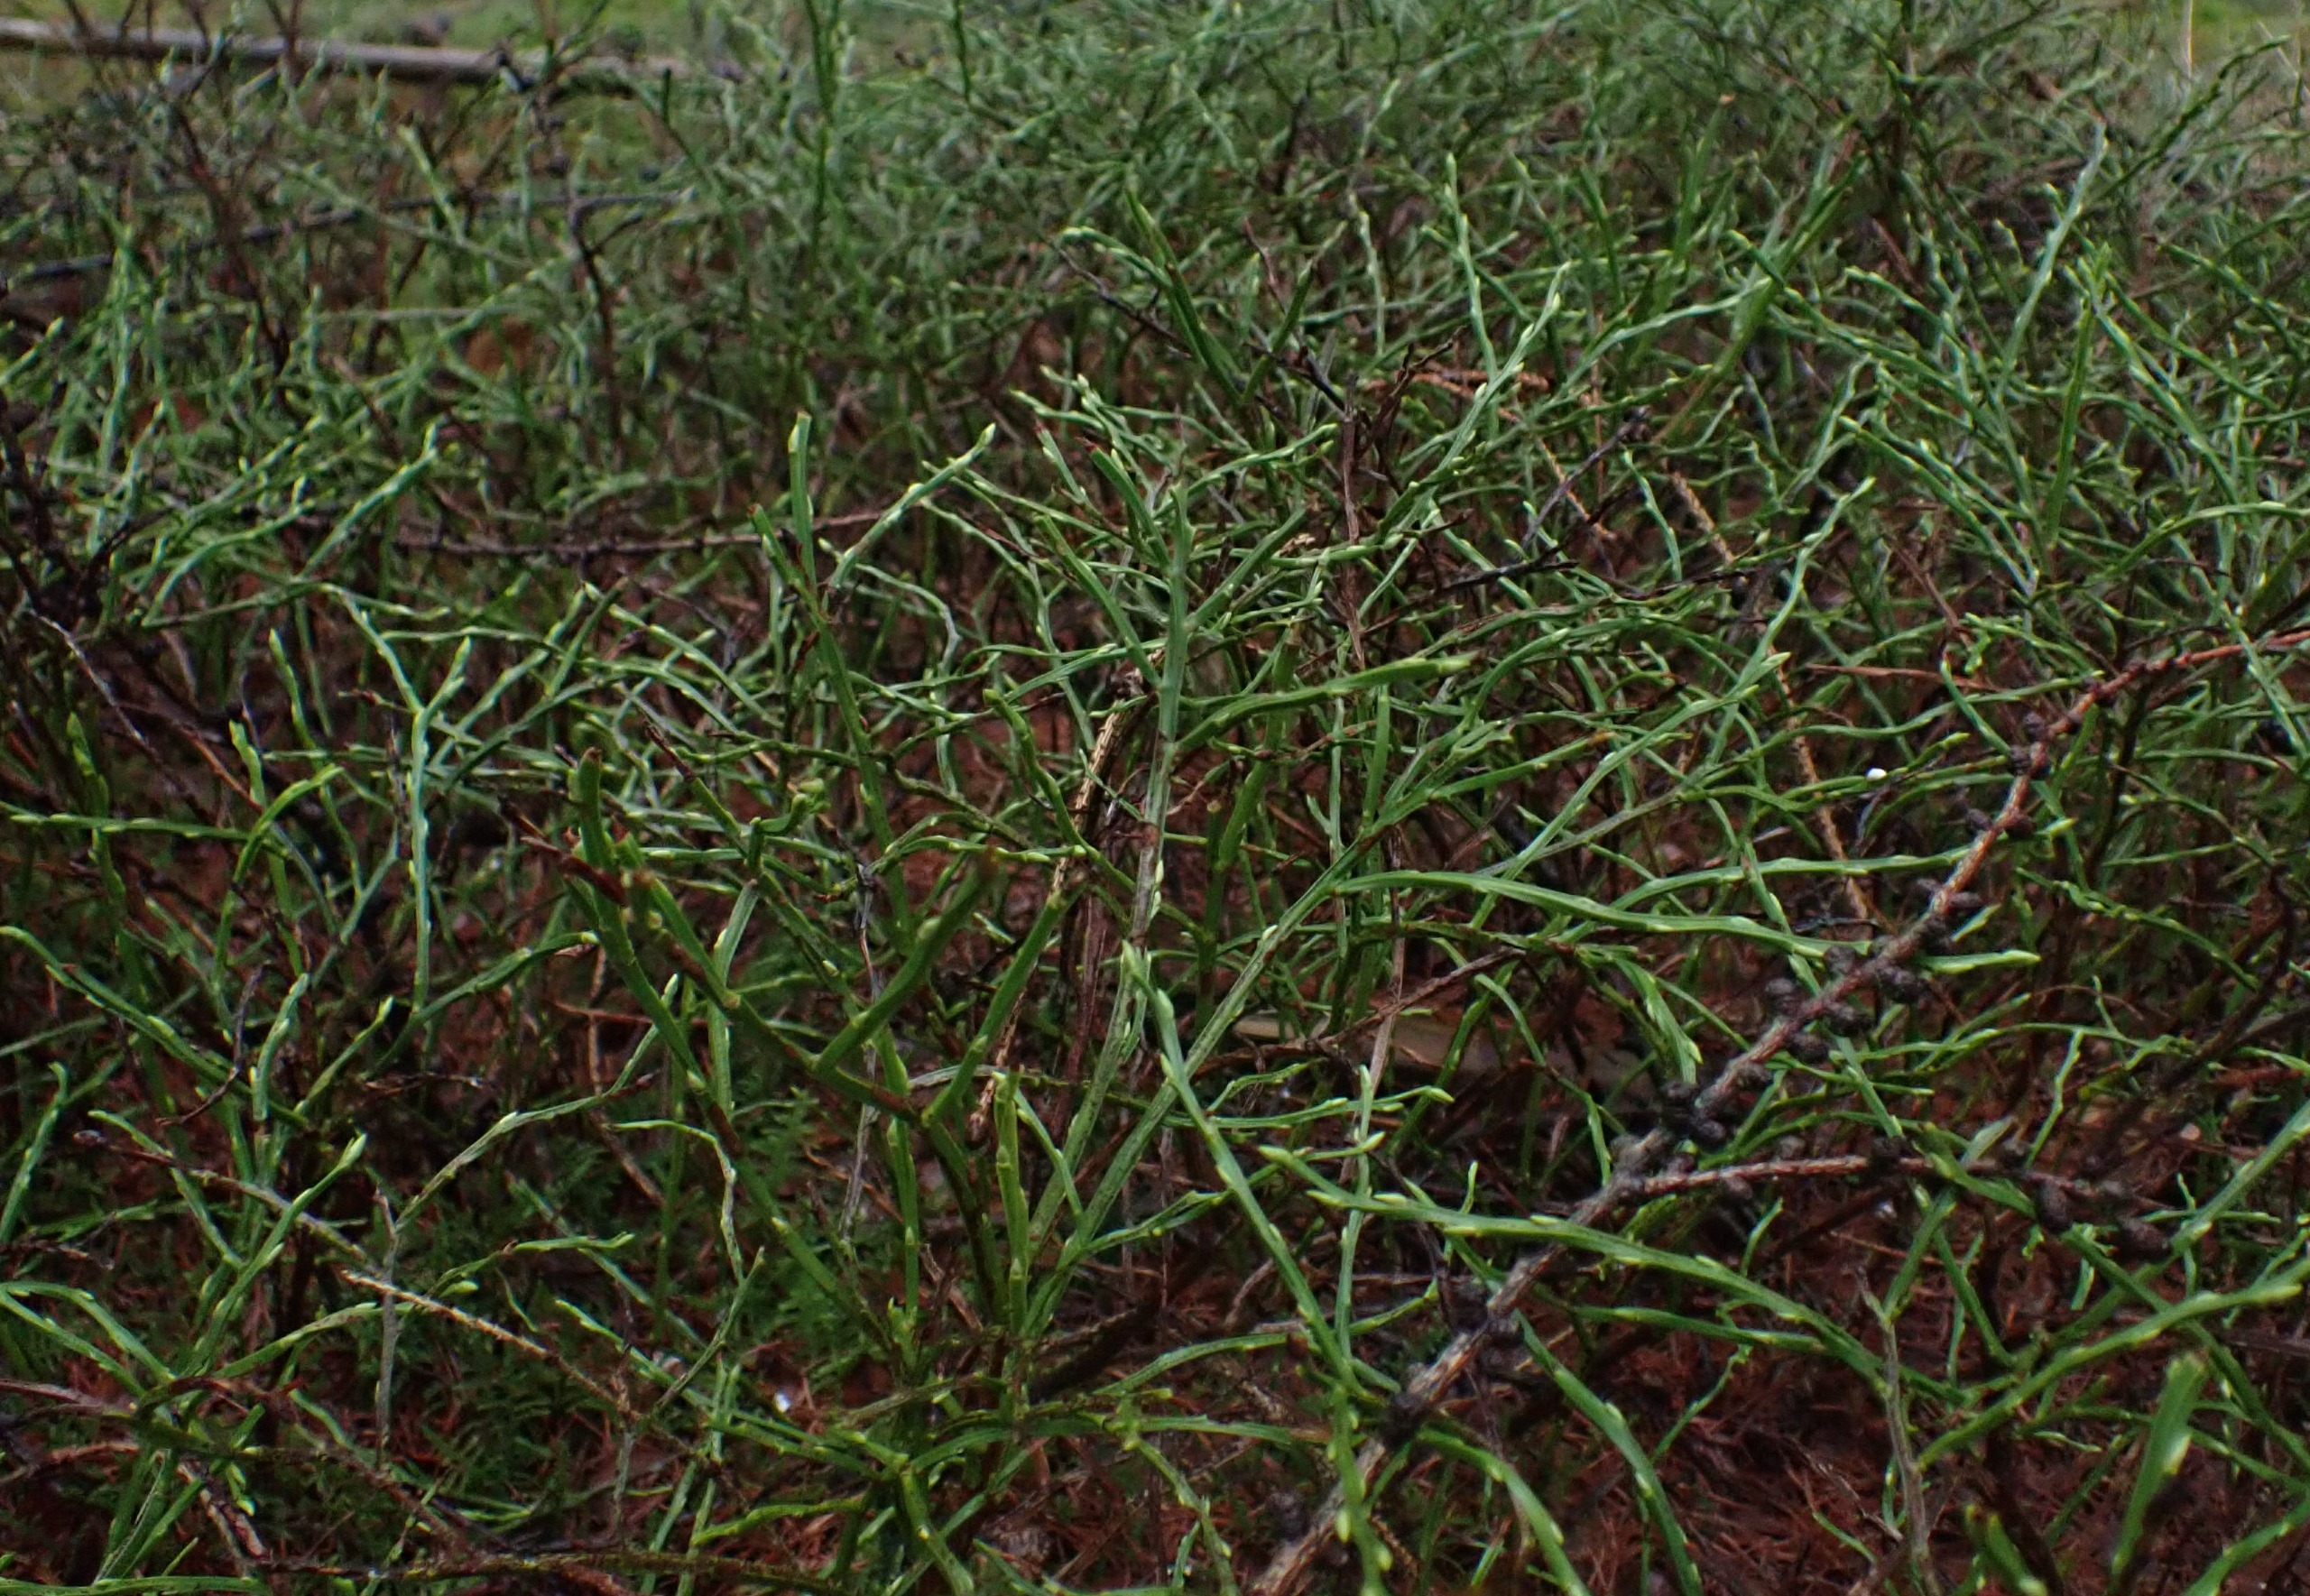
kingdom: Plantae
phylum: Tracheophyta
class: Magnoliopsida
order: Ericales
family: Ericaceae
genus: Vaccinium
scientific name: Vaccinium myrtillus
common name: Blåbær
